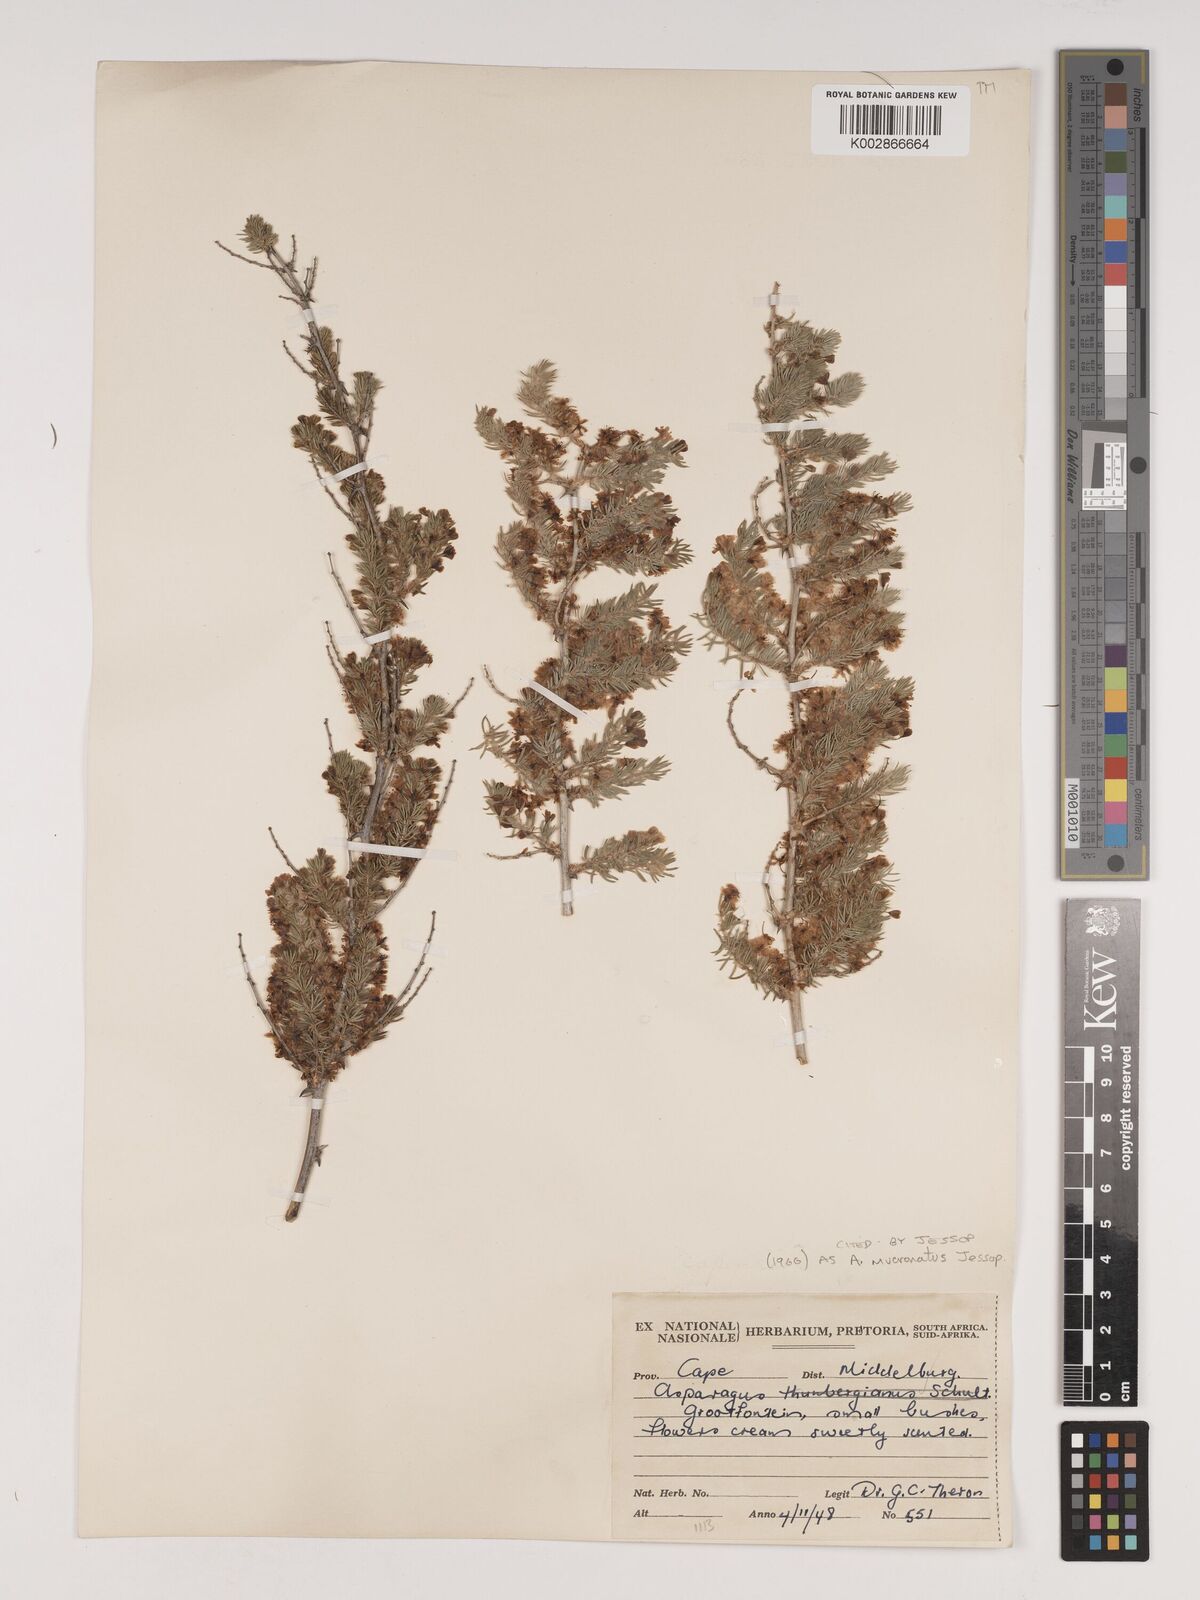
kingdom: Plantae
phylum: Tracheophyta
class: Liliopsida
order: Asparagales
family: Asparagaceae
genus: Asparagus
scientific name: Asparagus mucronatus
